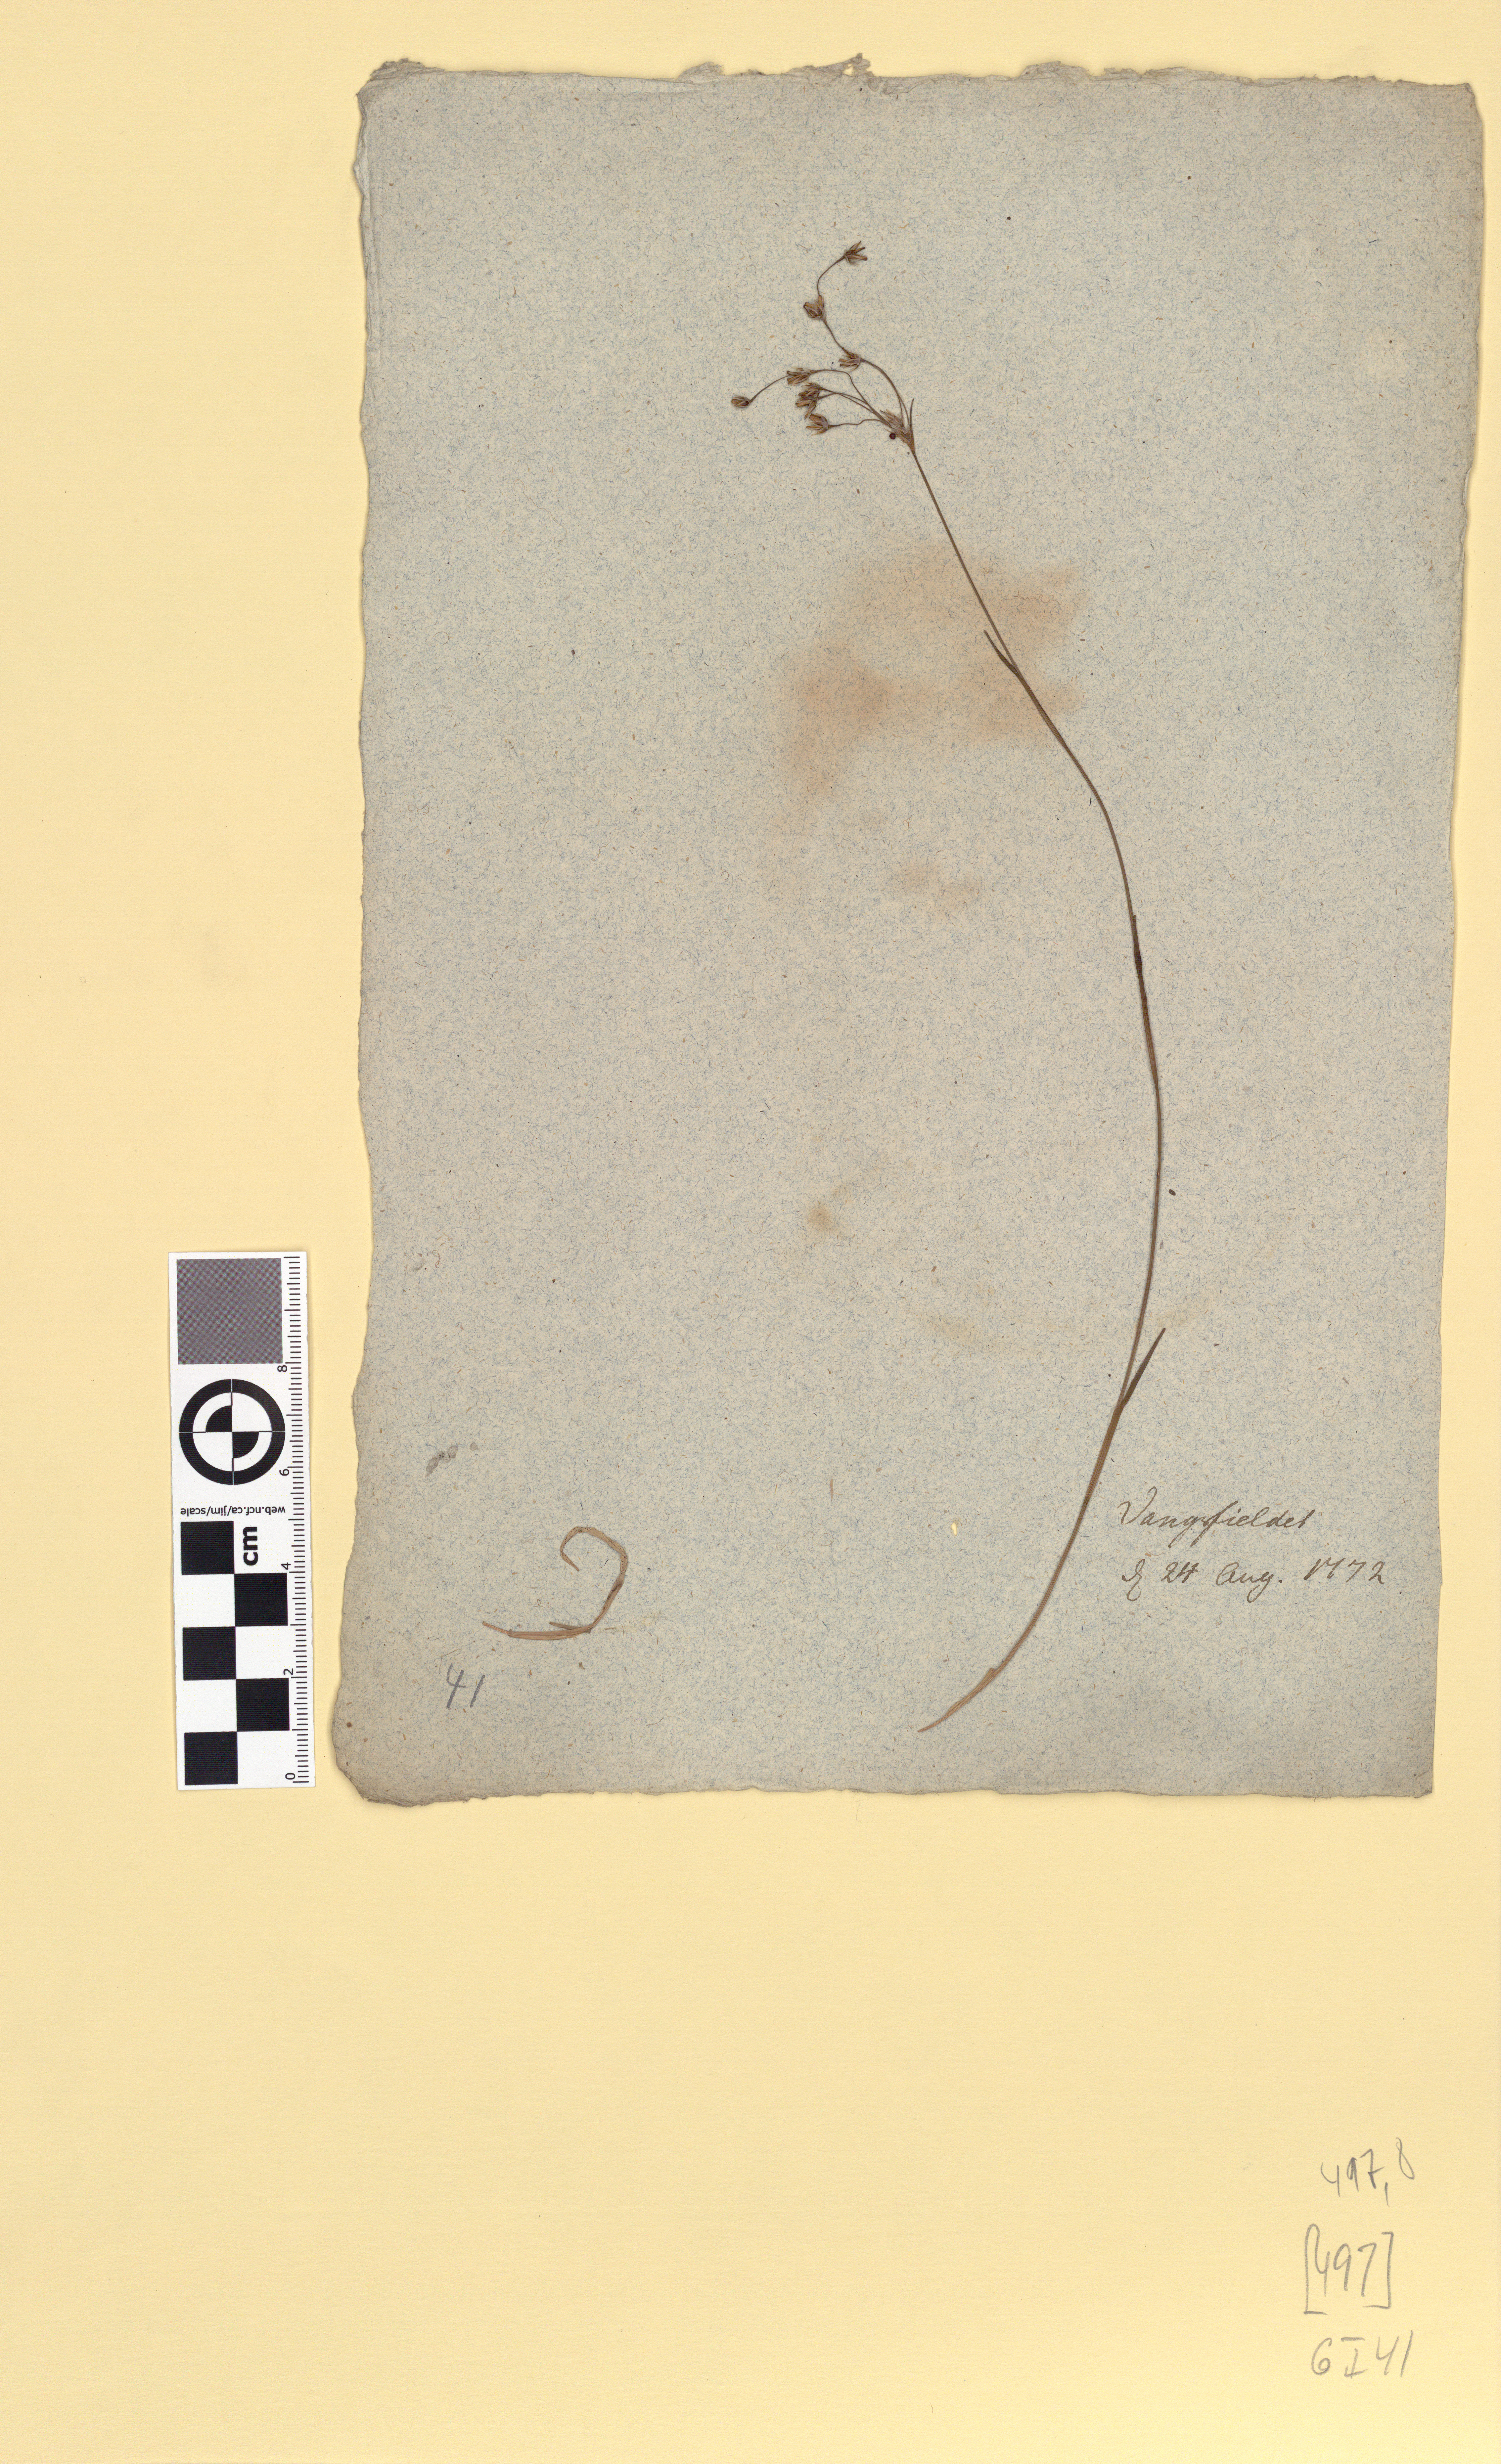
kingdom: Plantae
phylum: Tracheophyta
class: Liliopsida
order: Poales
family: Juncaceae
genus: Luzula
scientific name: Luzula pilosa
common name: Hairy wood-rush
